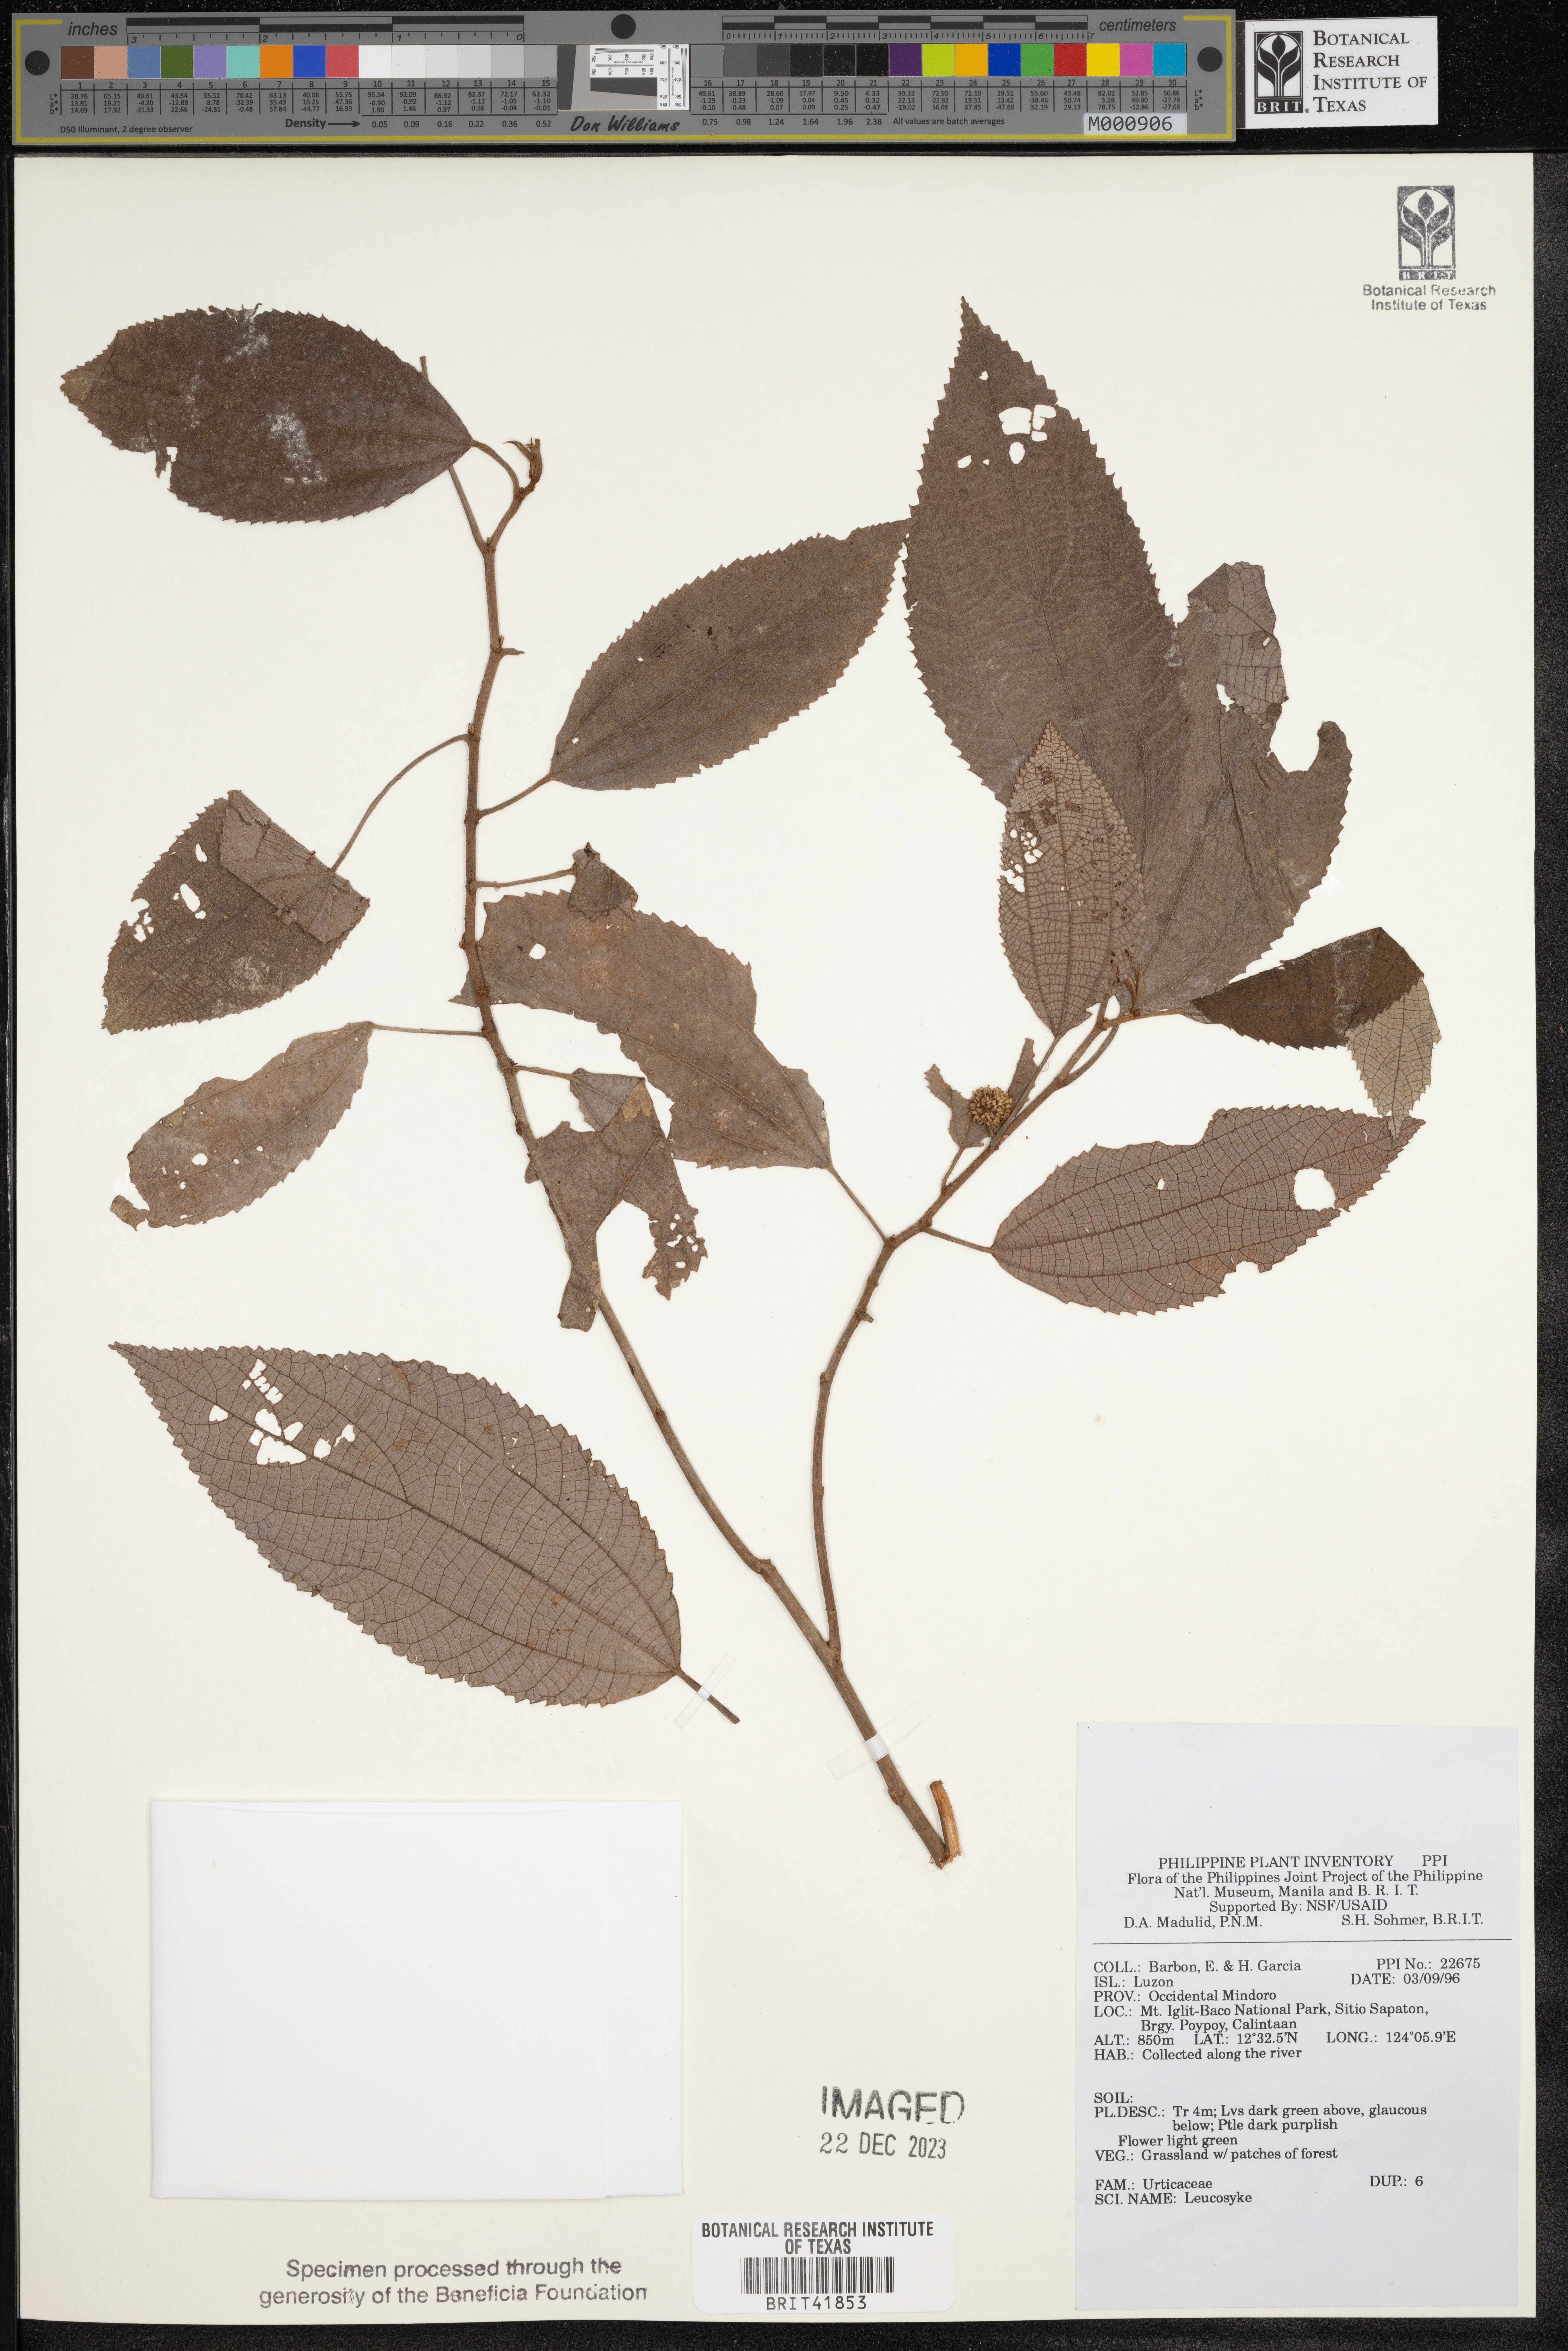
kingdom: Plantae
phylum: Tracheophyta
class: Magnoliopsida
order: Rosales
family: Urticaceae
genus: Leucosyke
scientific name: Leucosyke
